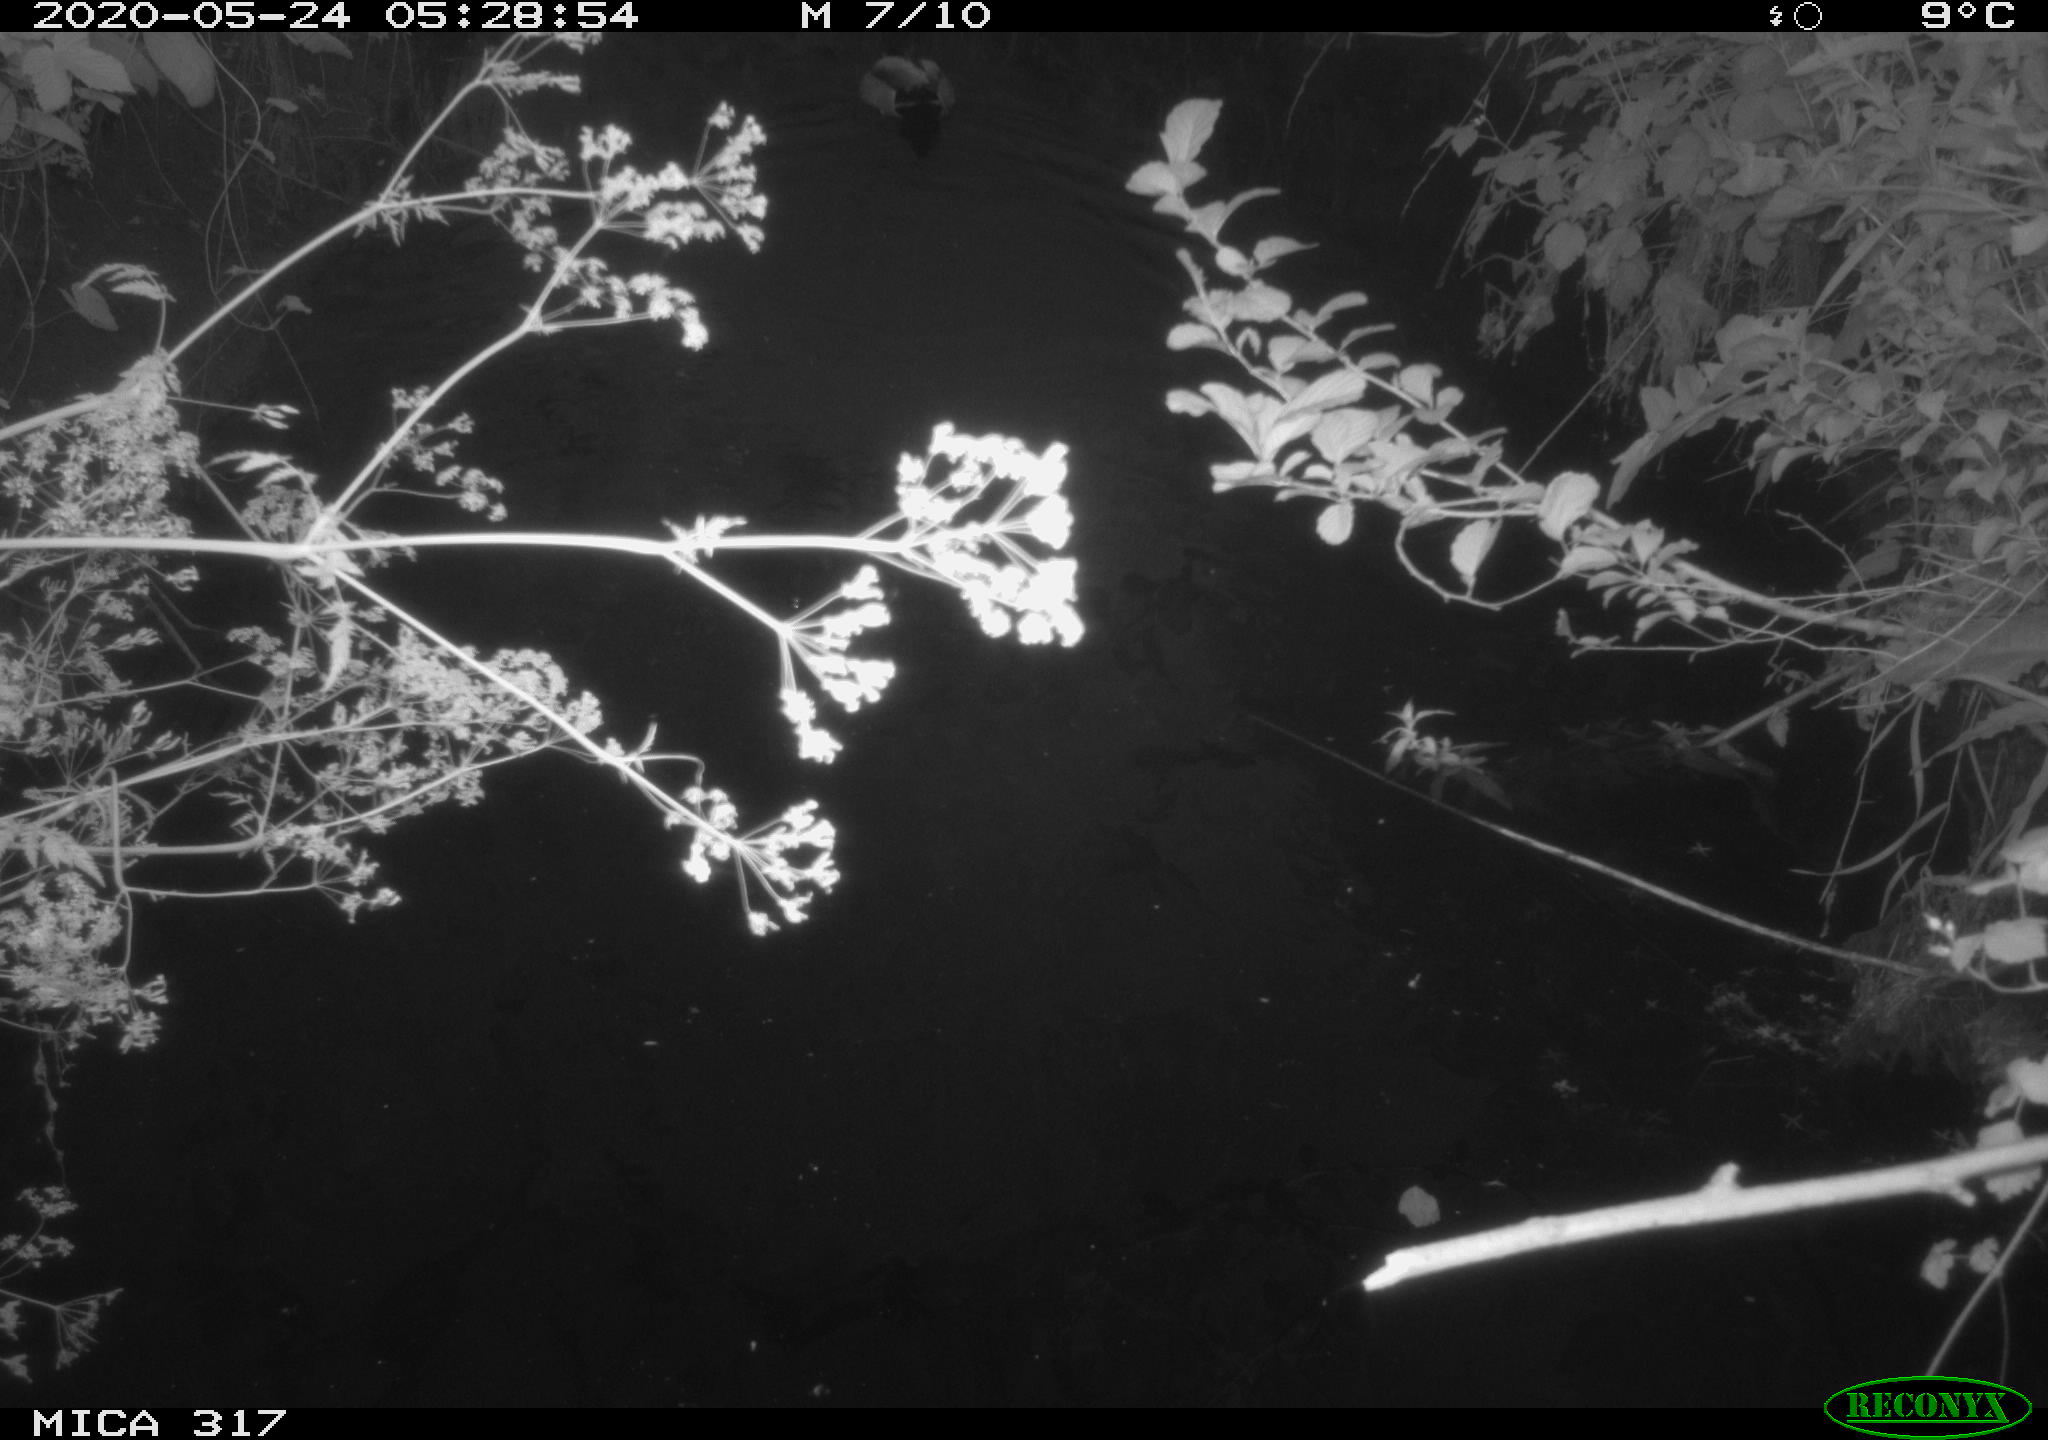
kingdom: Animalia
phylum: Chordata
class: Aves
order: Anseriformes
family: Anatidae
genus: Anas
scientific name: Anas platyrhynchos
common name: Mallard
